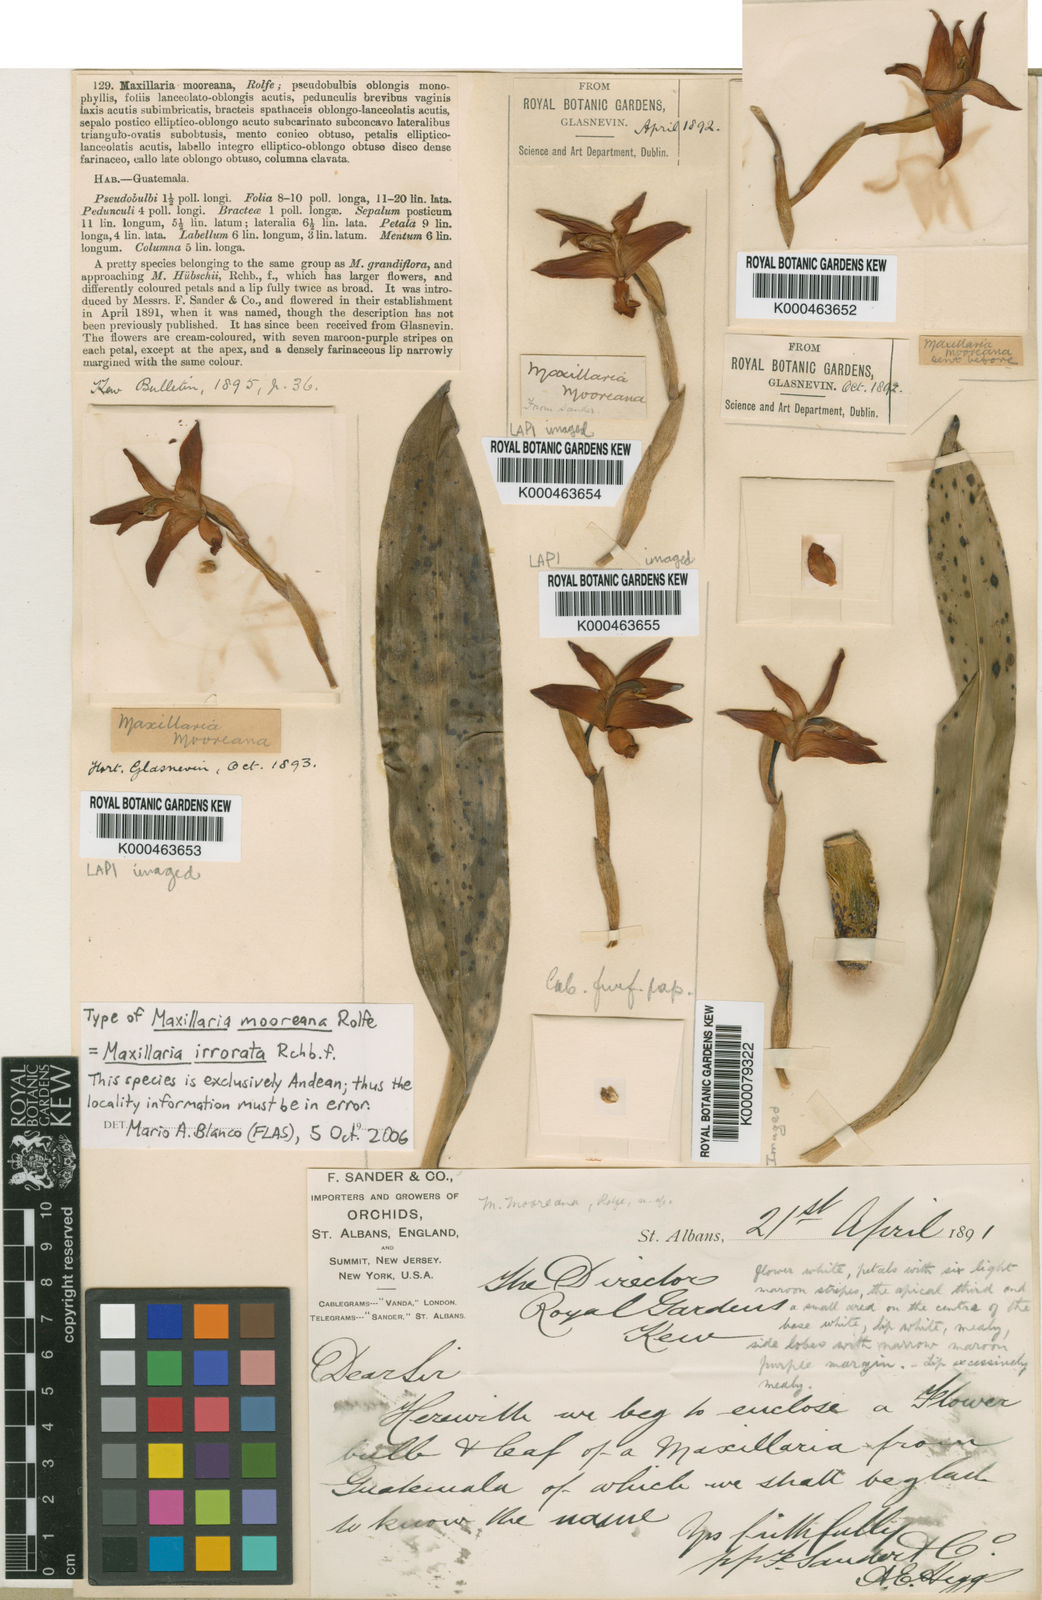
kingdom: Plantae
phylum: Tracheophyta
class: Liliopsida
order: Asparagales
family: Orchidaceae
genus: Maxillaria
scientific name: Maxillaria irrorata
